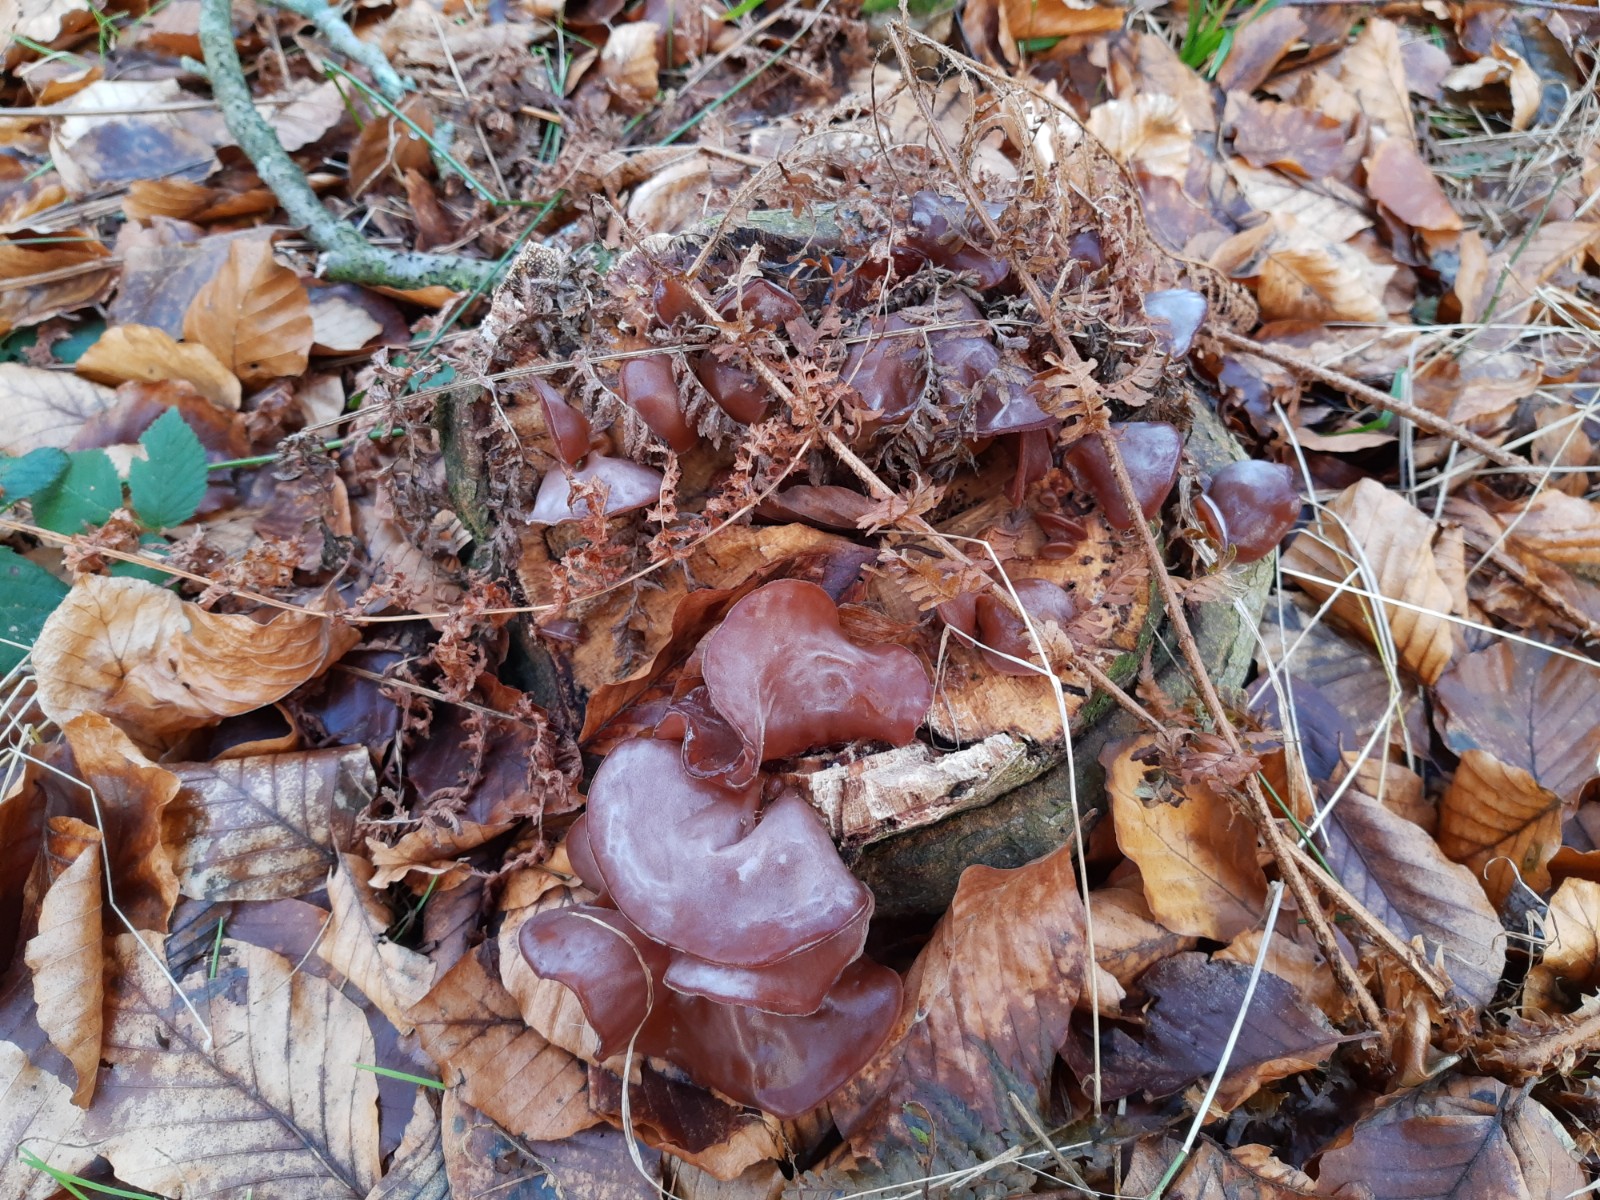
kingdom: Fungi
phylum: Basidiomycota
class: Agaricomycetes
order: Auriculariales
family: Auriculariaceae
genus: Auricularia
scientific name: Auricularia auricula-judae
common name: almindelig judasøre
